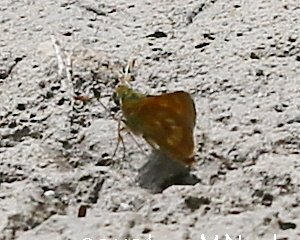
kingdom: Animalia
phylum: Arthropoda
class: Insecta
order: Lepidoptera
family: Hesperiidae
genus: Polites
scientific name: Polites
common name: Long Dash Skipper
